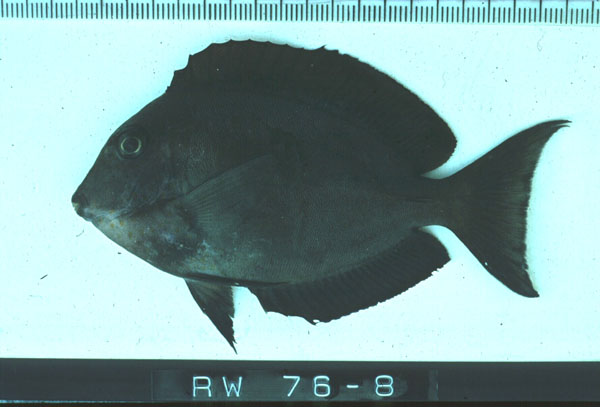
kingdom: Animalia
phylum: Chordata
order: Perciformes
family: Acanthuridae
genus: Acanthurus
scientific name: Acanthurus
